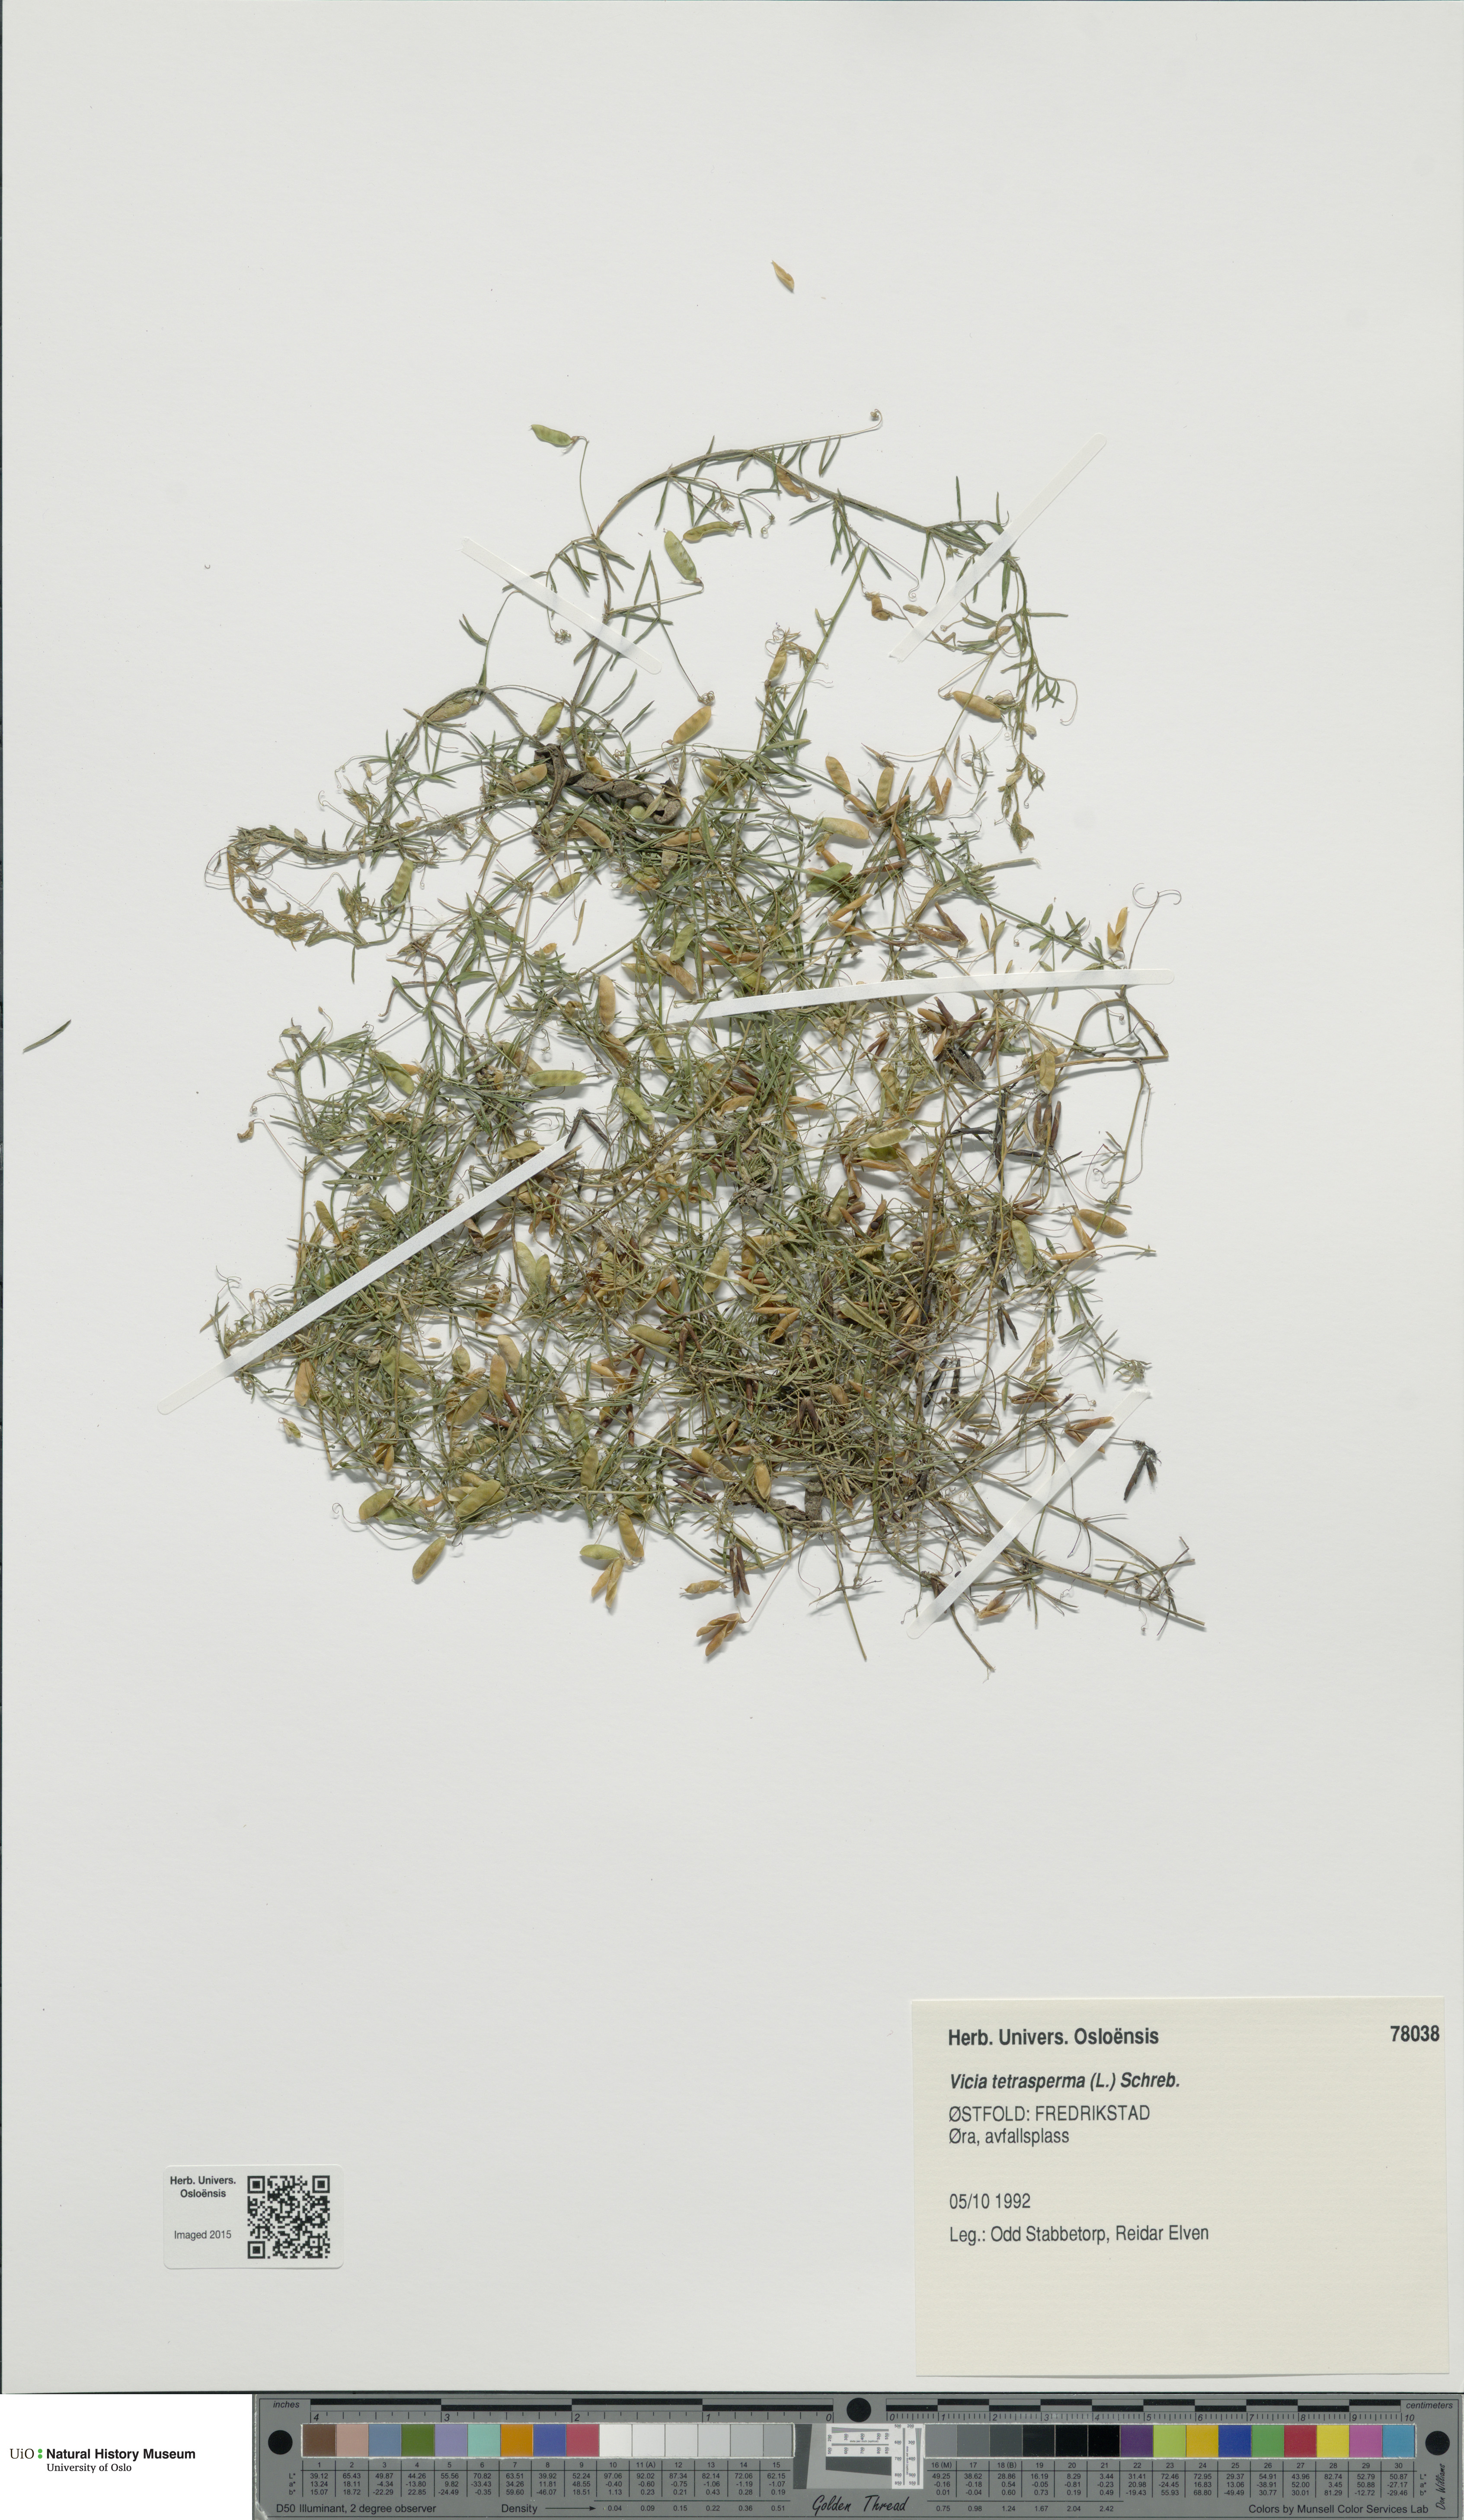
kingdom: Plantae
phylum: Tracheophyta
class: Magnoliopsida
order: Fabales
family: Fabaceae
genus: Vicia
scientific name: Vicia tetrasperma
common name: Smooth tare
